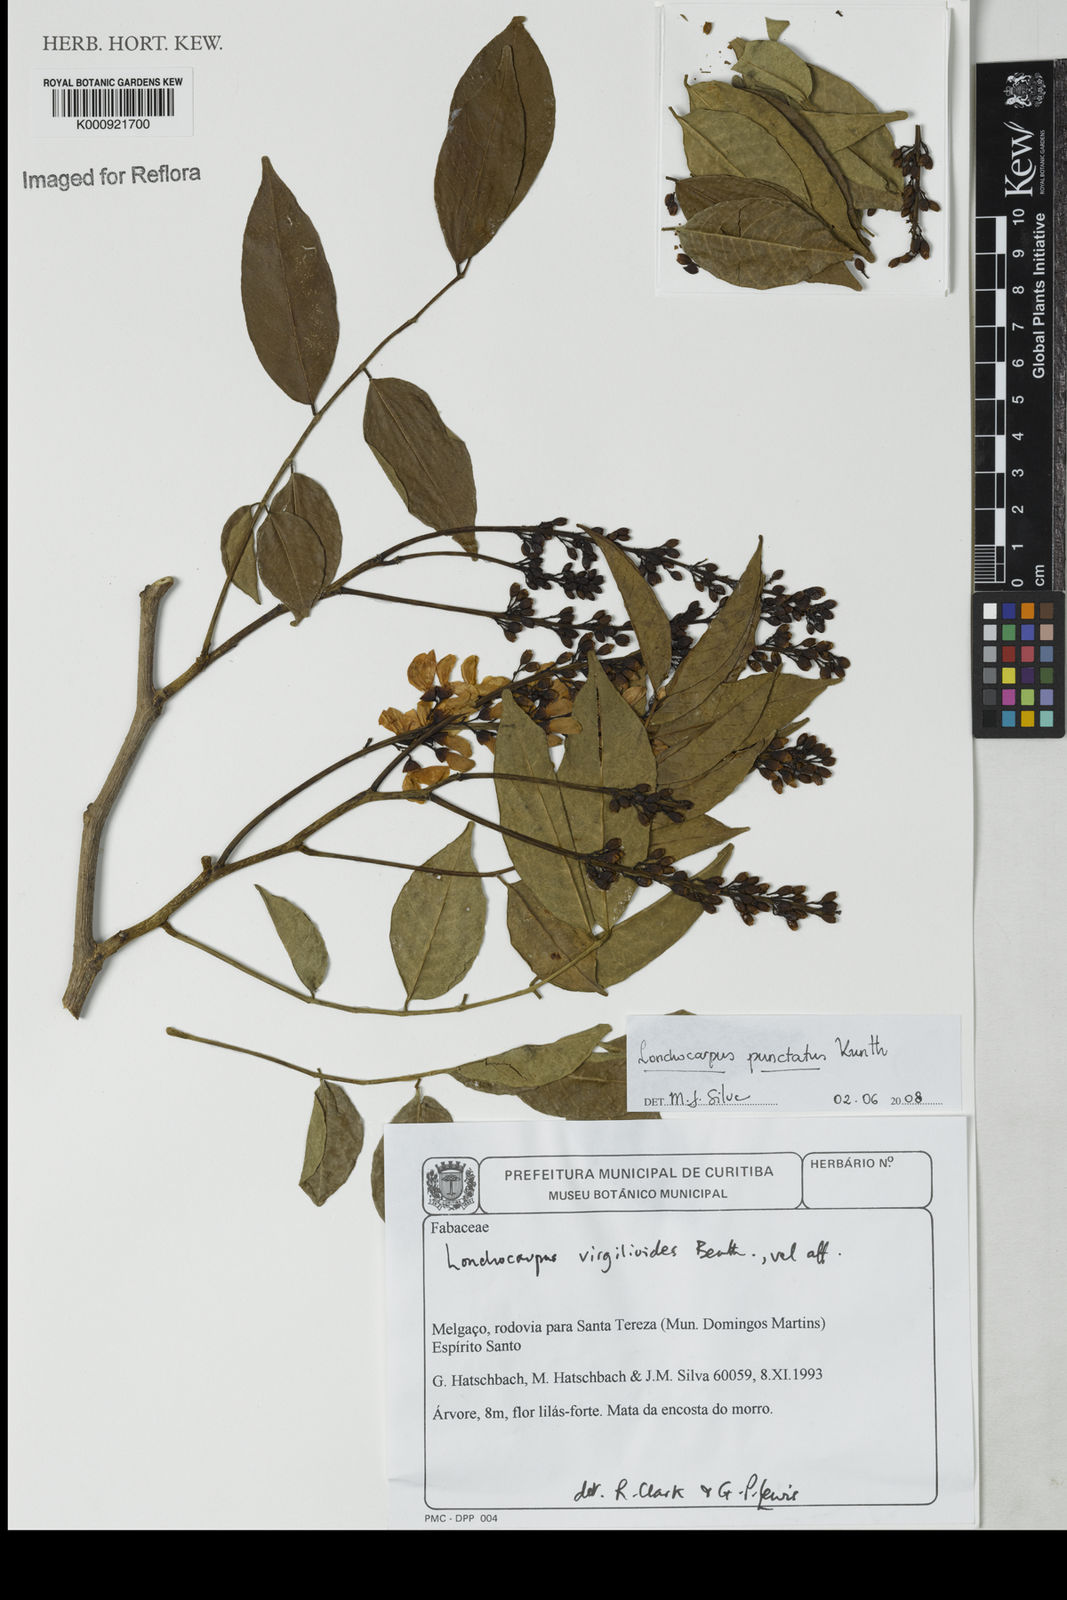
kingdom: Plantae
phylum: Tracheophyta
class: Magnoliopsida
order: Fabales
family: Fabaceae
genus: Lonchocarpus
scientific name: Lonchocarpus punctatus
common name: Dotted lancepod
